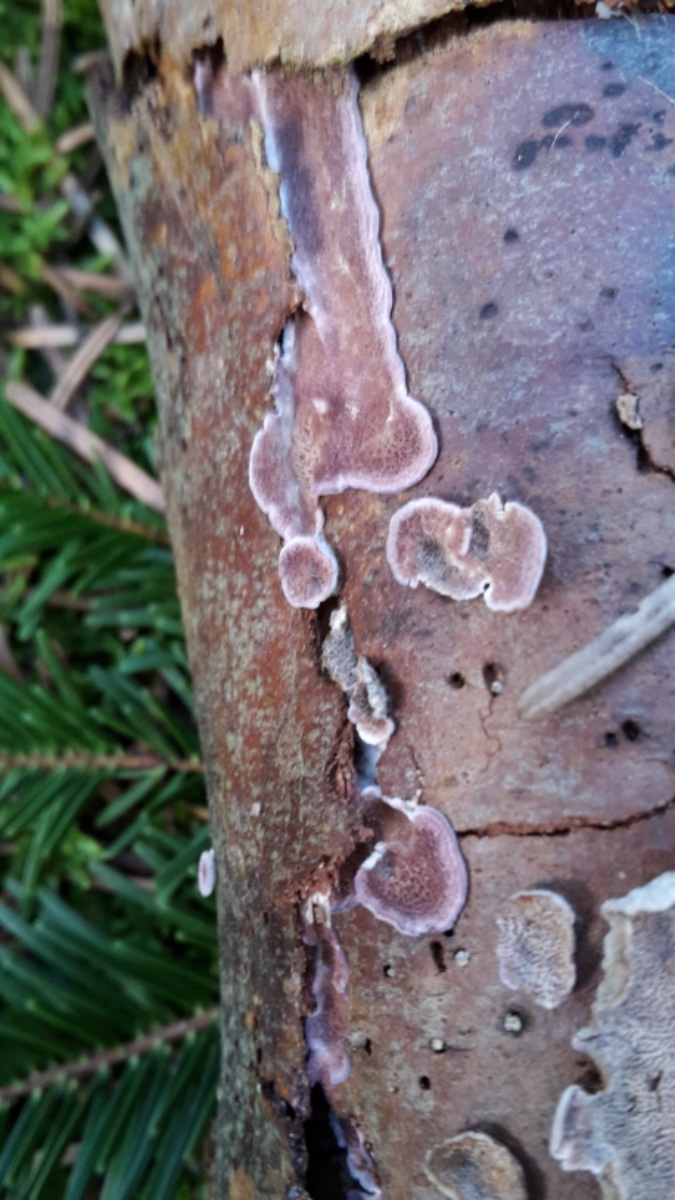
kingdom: Fungi
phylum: Basidiomycota
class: Agaricomycetes
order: Hymenochaetales
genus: Trichaptum
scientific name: Trichaptum abietinum
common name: almindelig violporesvamp
